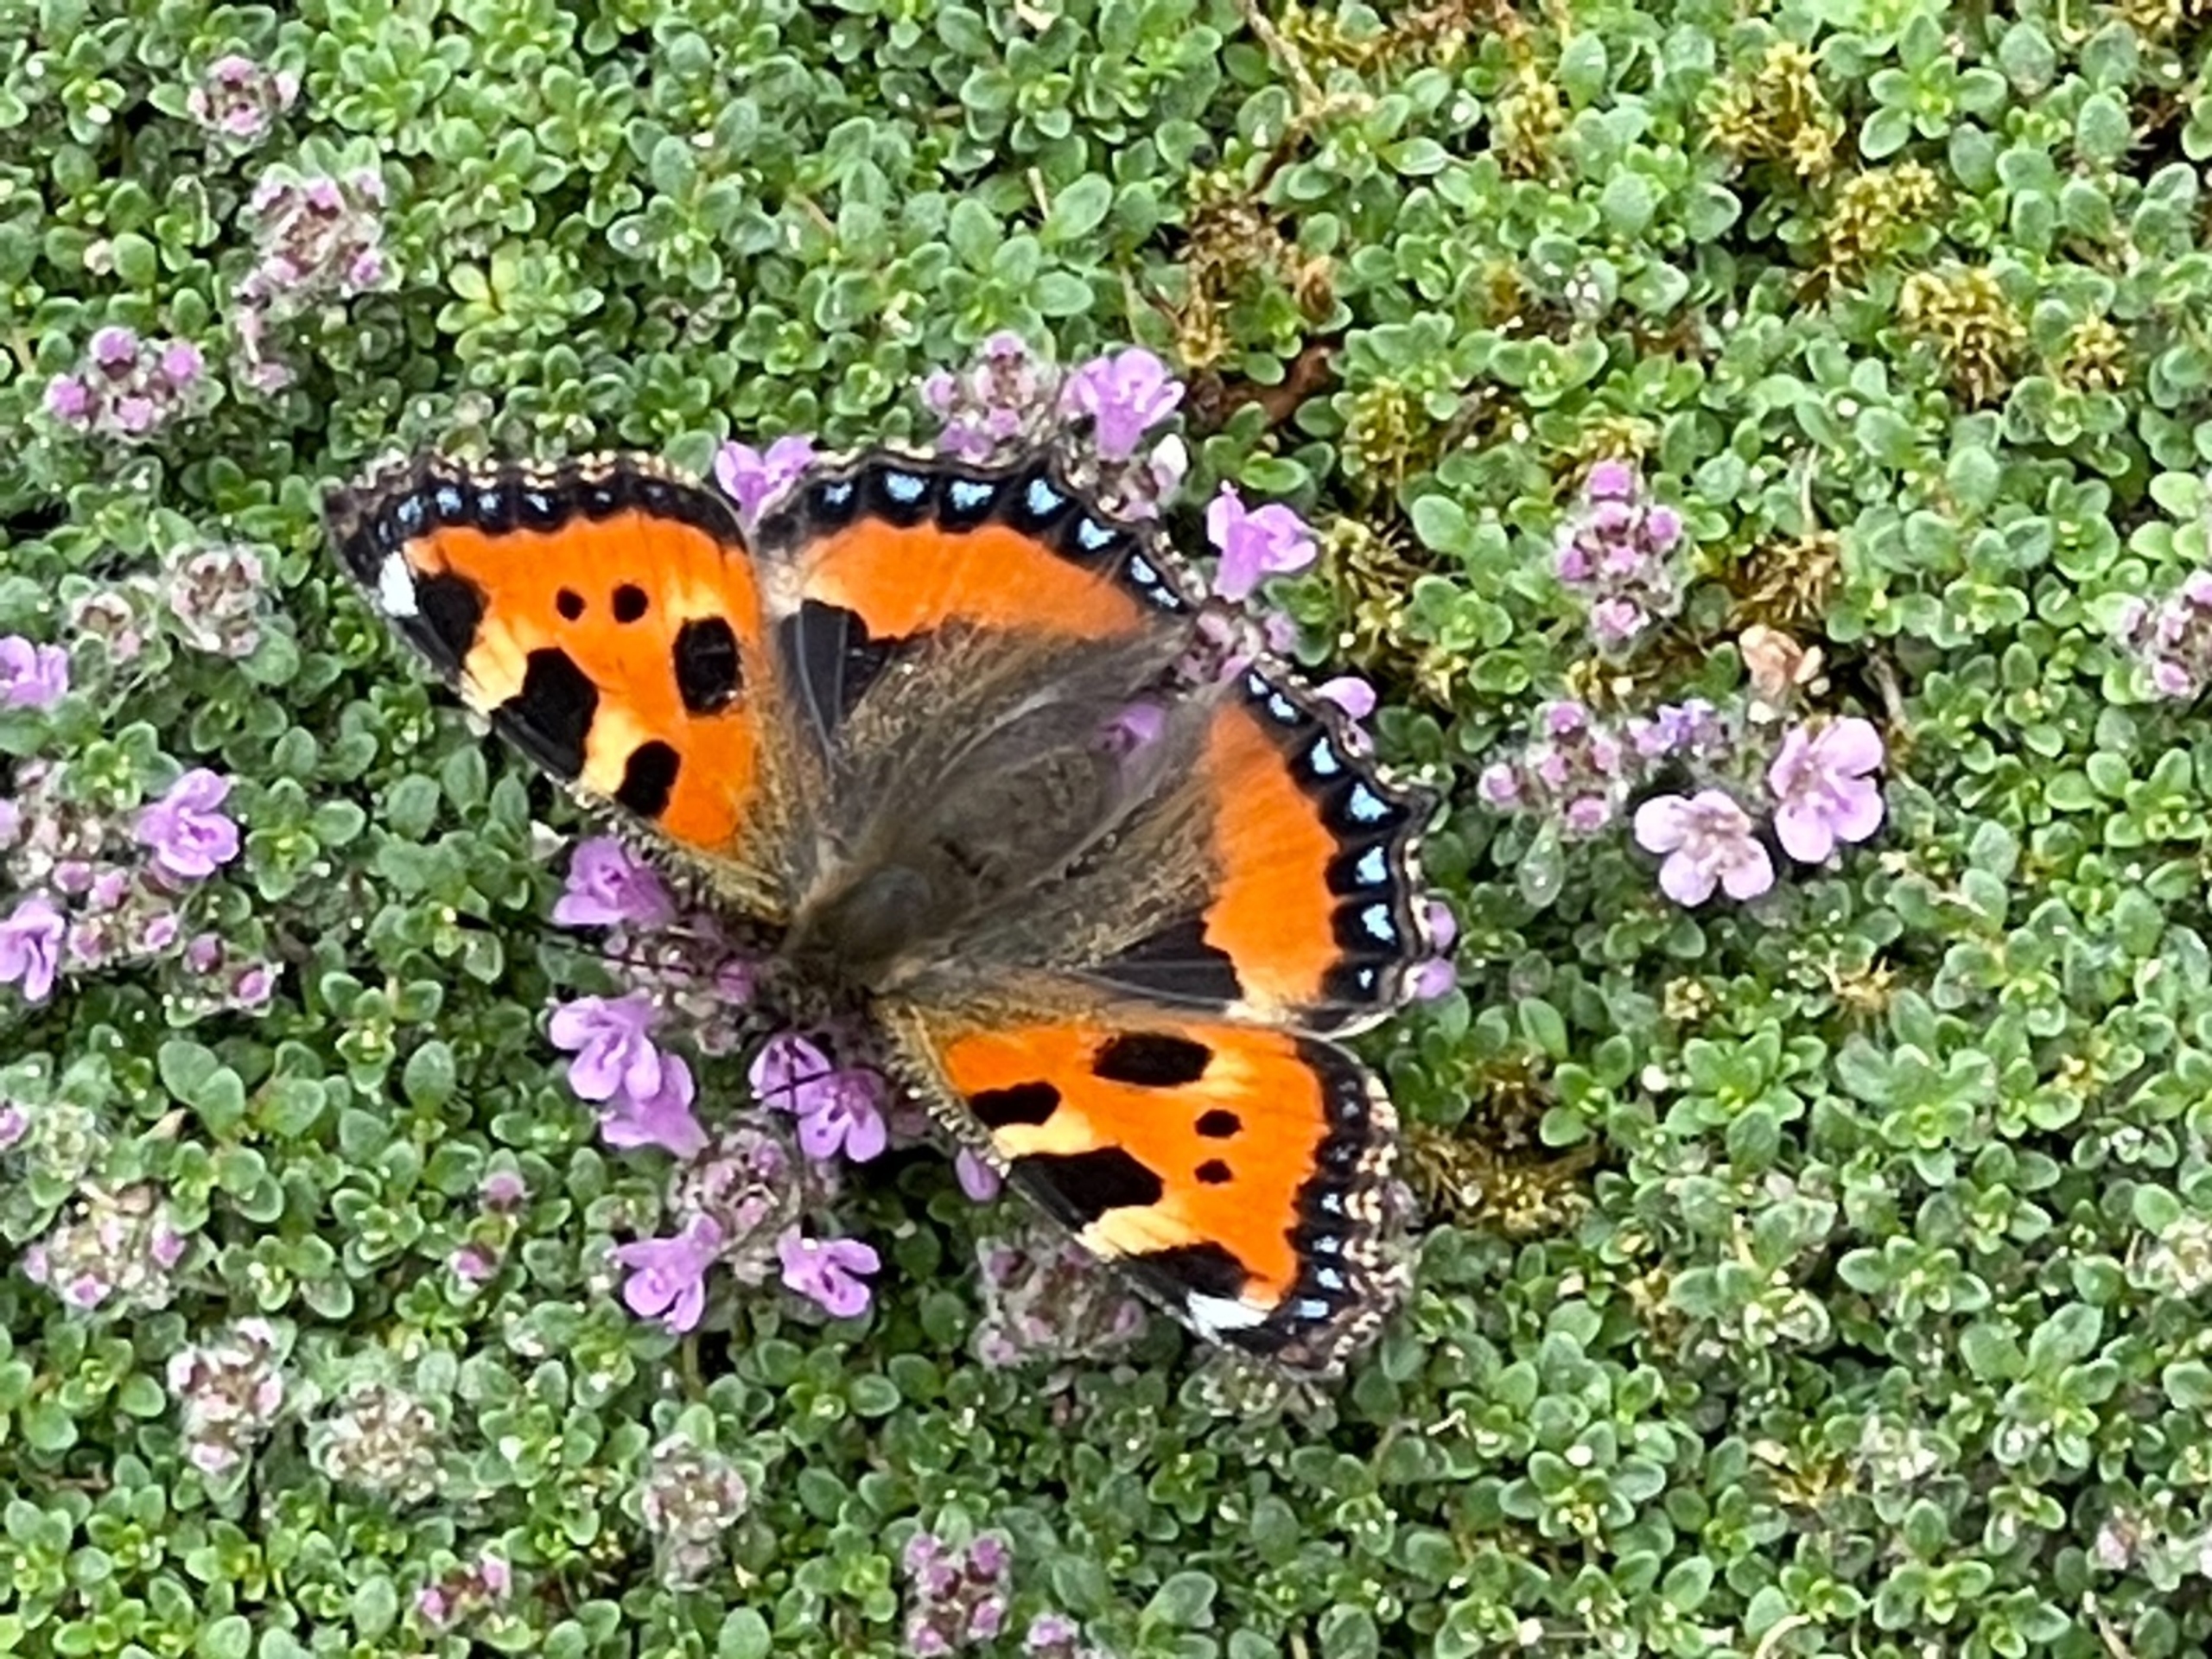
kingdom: Animalia
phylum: Arthropoda
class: Insecta
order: Lepidoptera
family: Nymphalidae
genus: Aglais
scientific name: Aglais urticae
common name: Nældens takvinge
